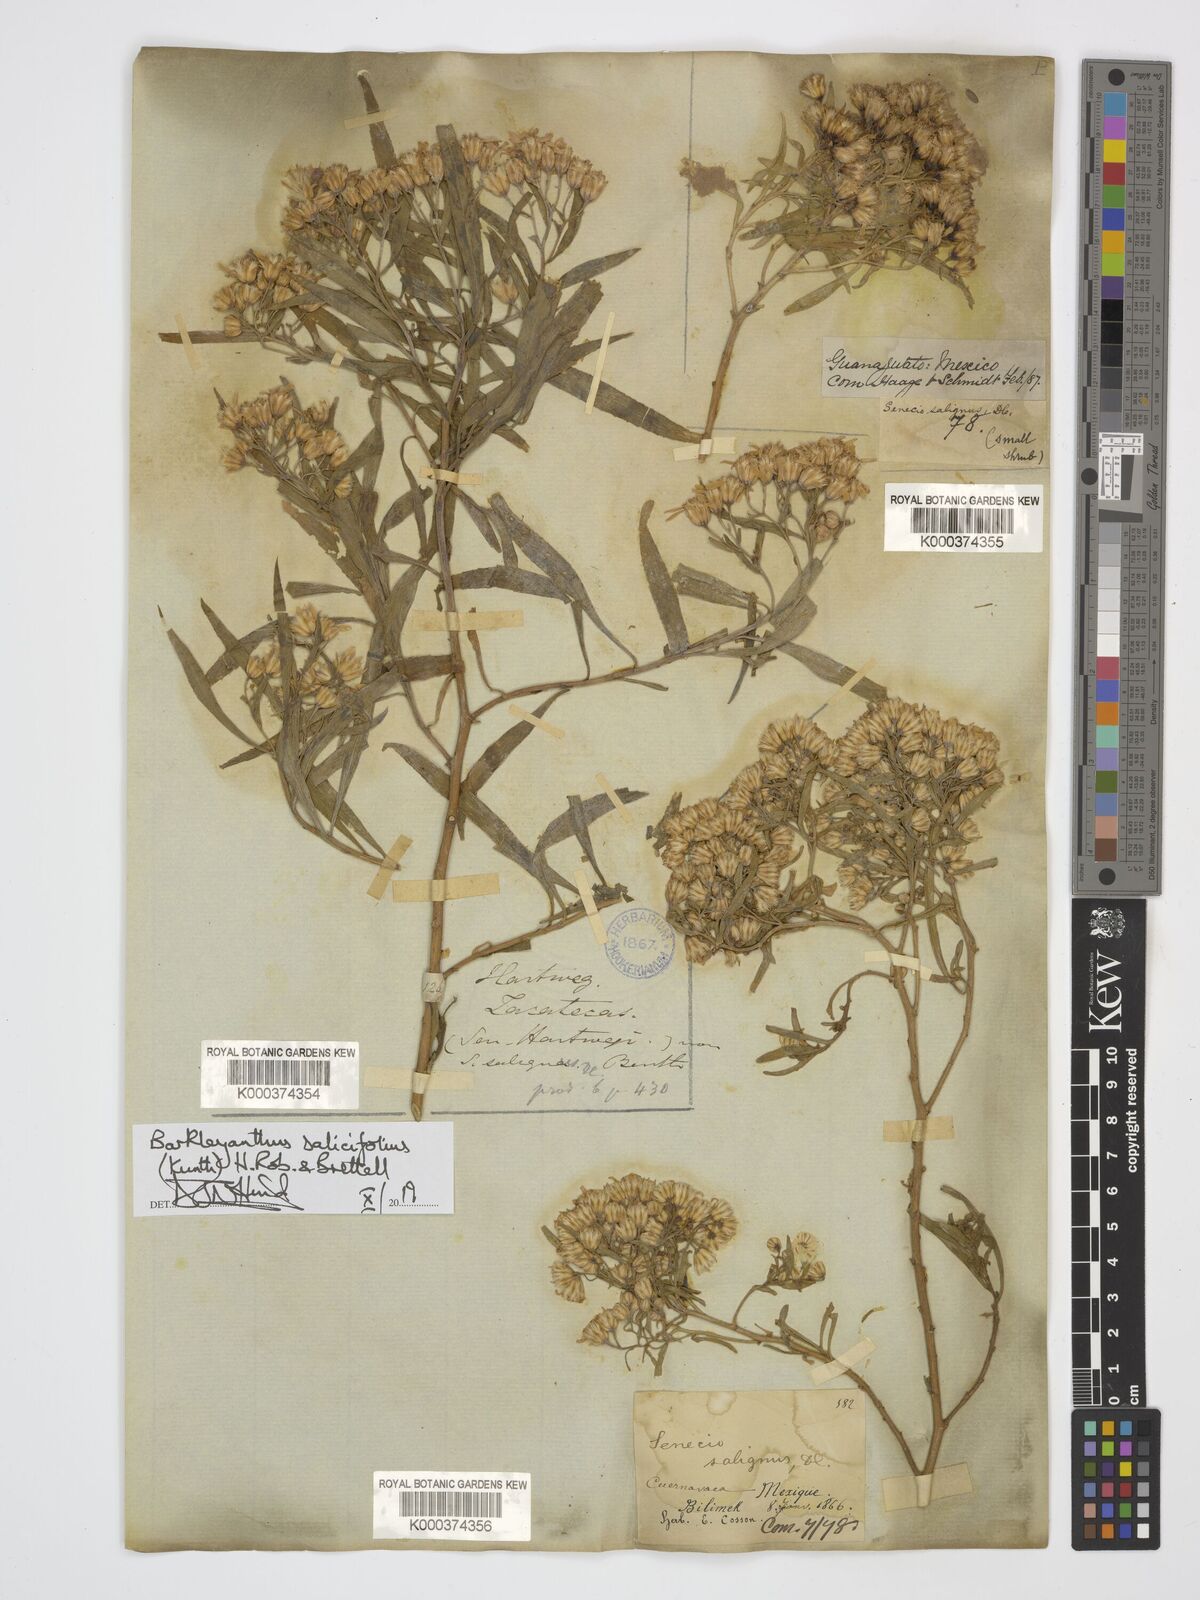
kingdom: Plantae
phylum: Tracheophyta
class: Magnoliopsida
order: Asterales
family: Asteraceae
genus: Barkleyanthus
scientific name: Barkleyanthus salicifolius
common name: Willow ragwort
